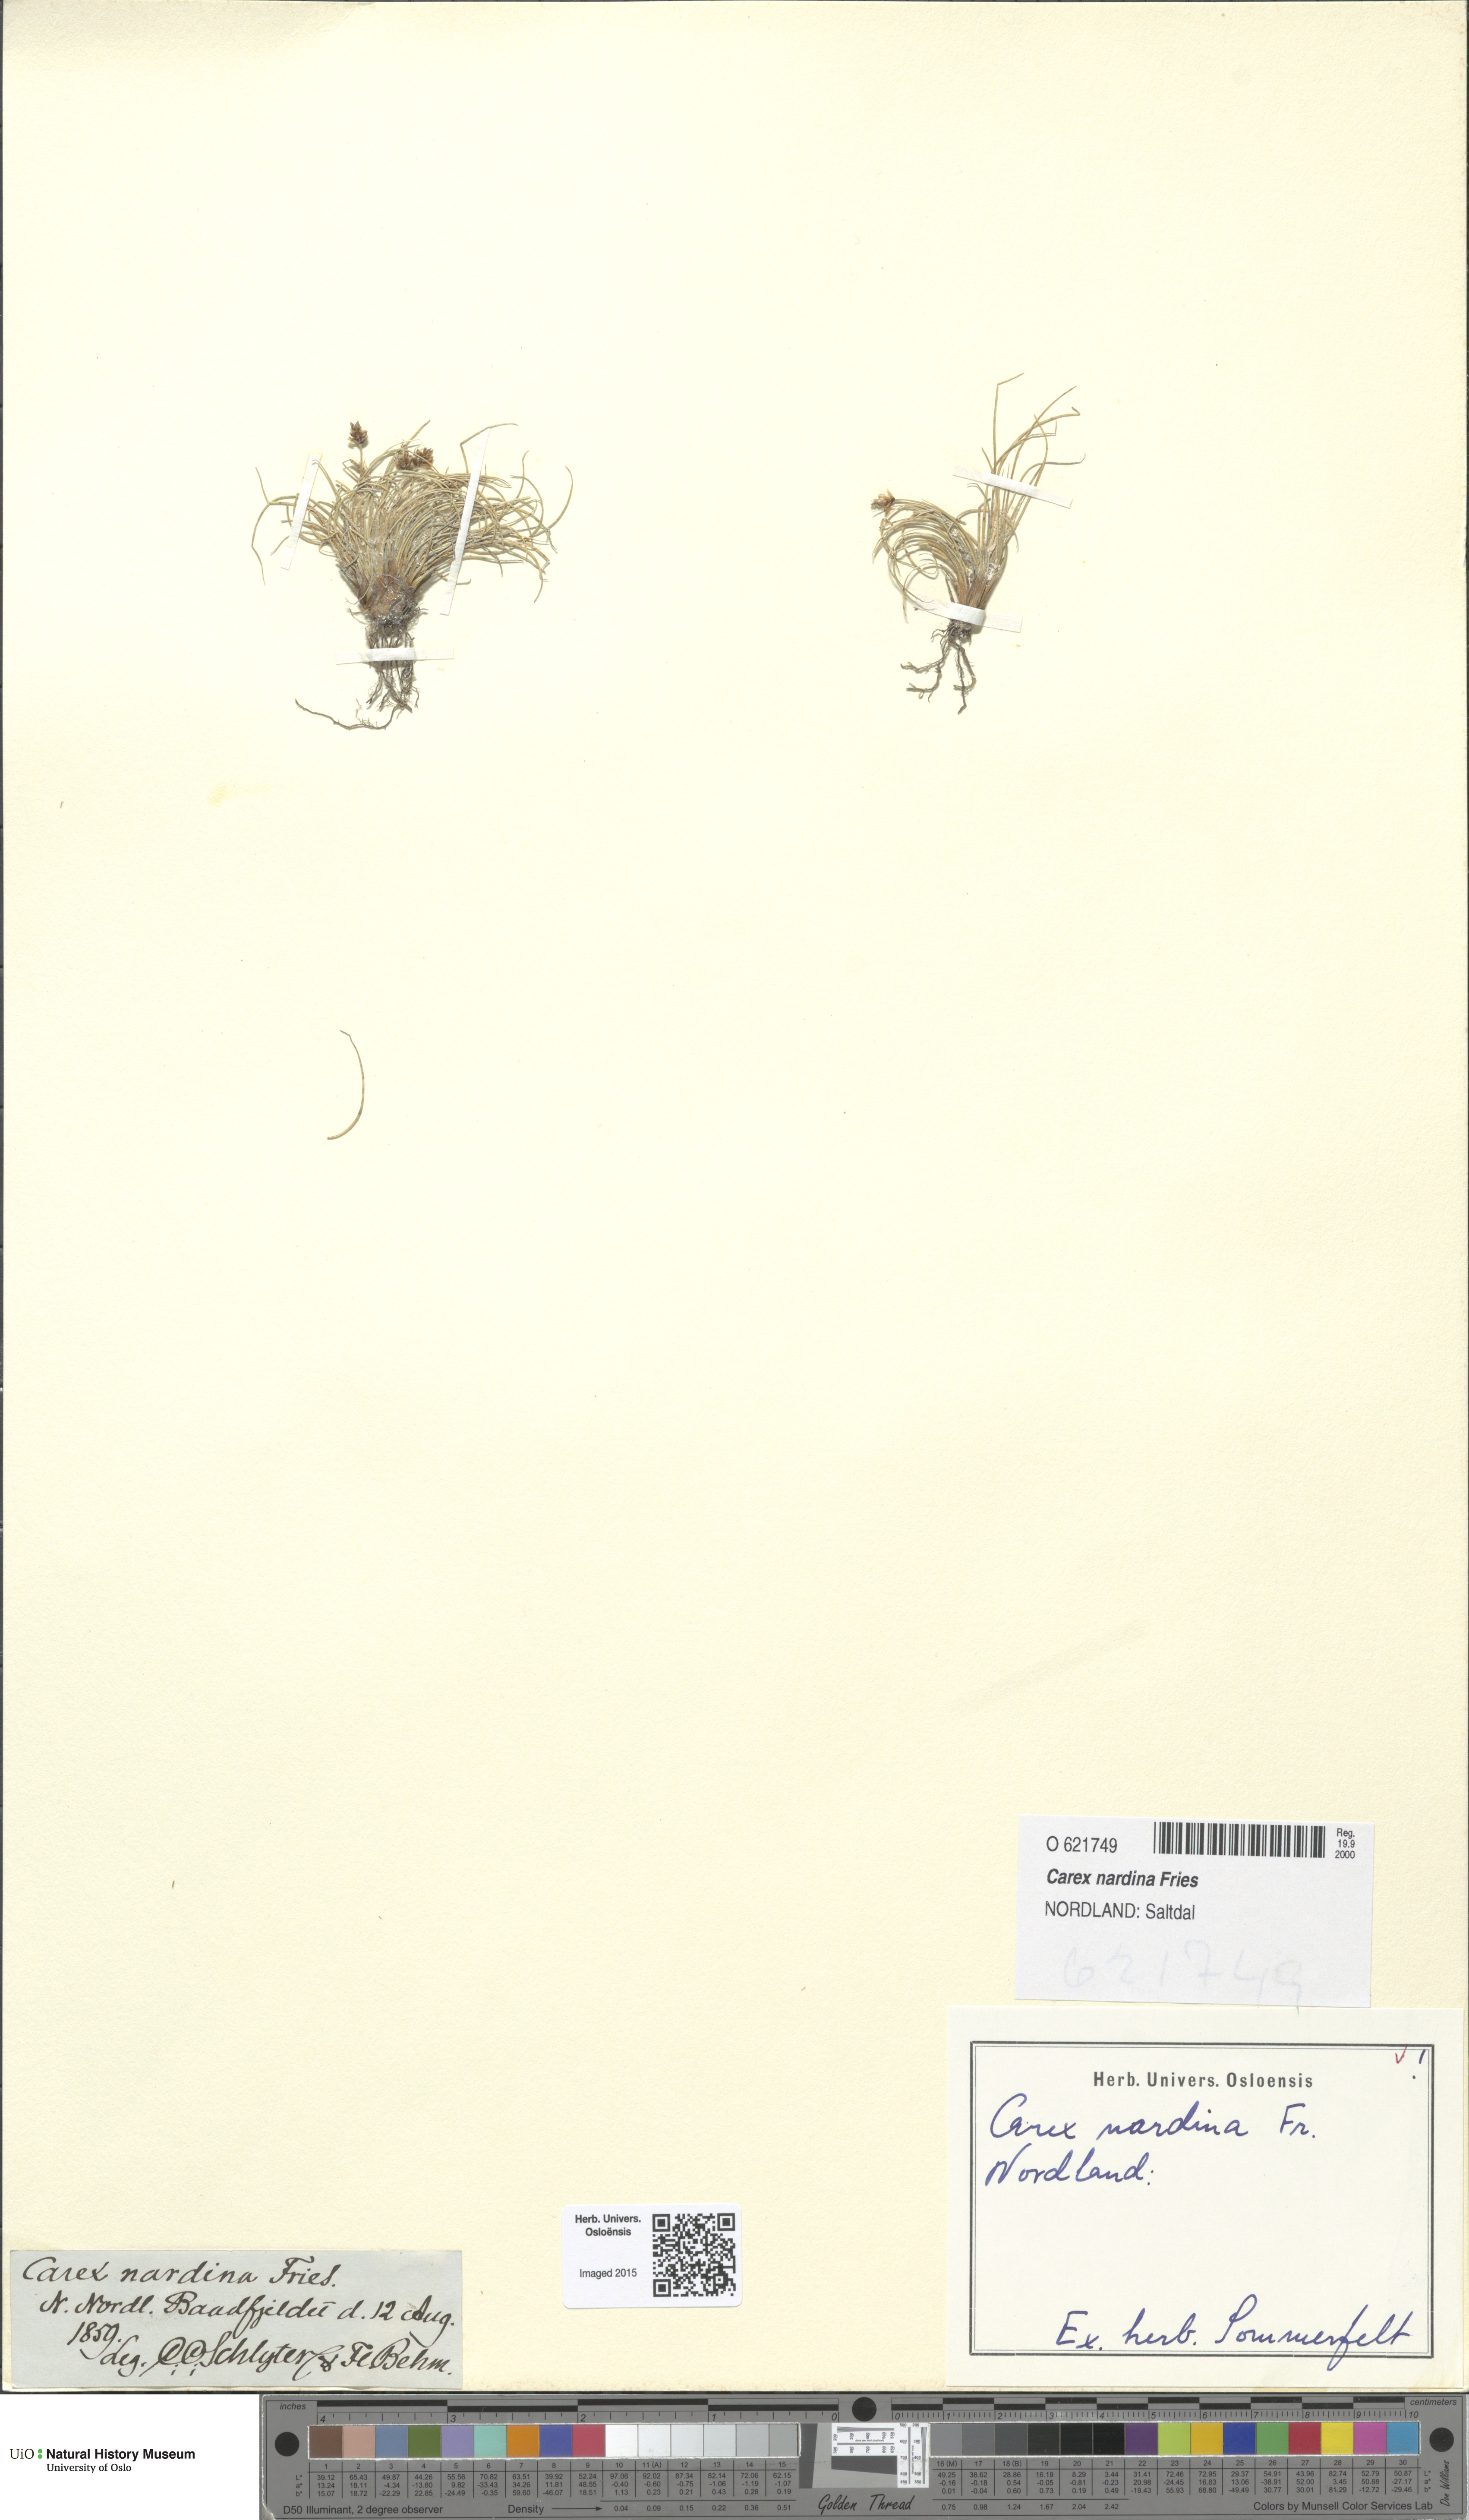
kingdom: Plantae
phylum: Tracheophyta
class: Liliopsida
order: Poales
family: Cyperaceae
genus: Carex
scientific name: Carex nardina
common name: Nard sedge
